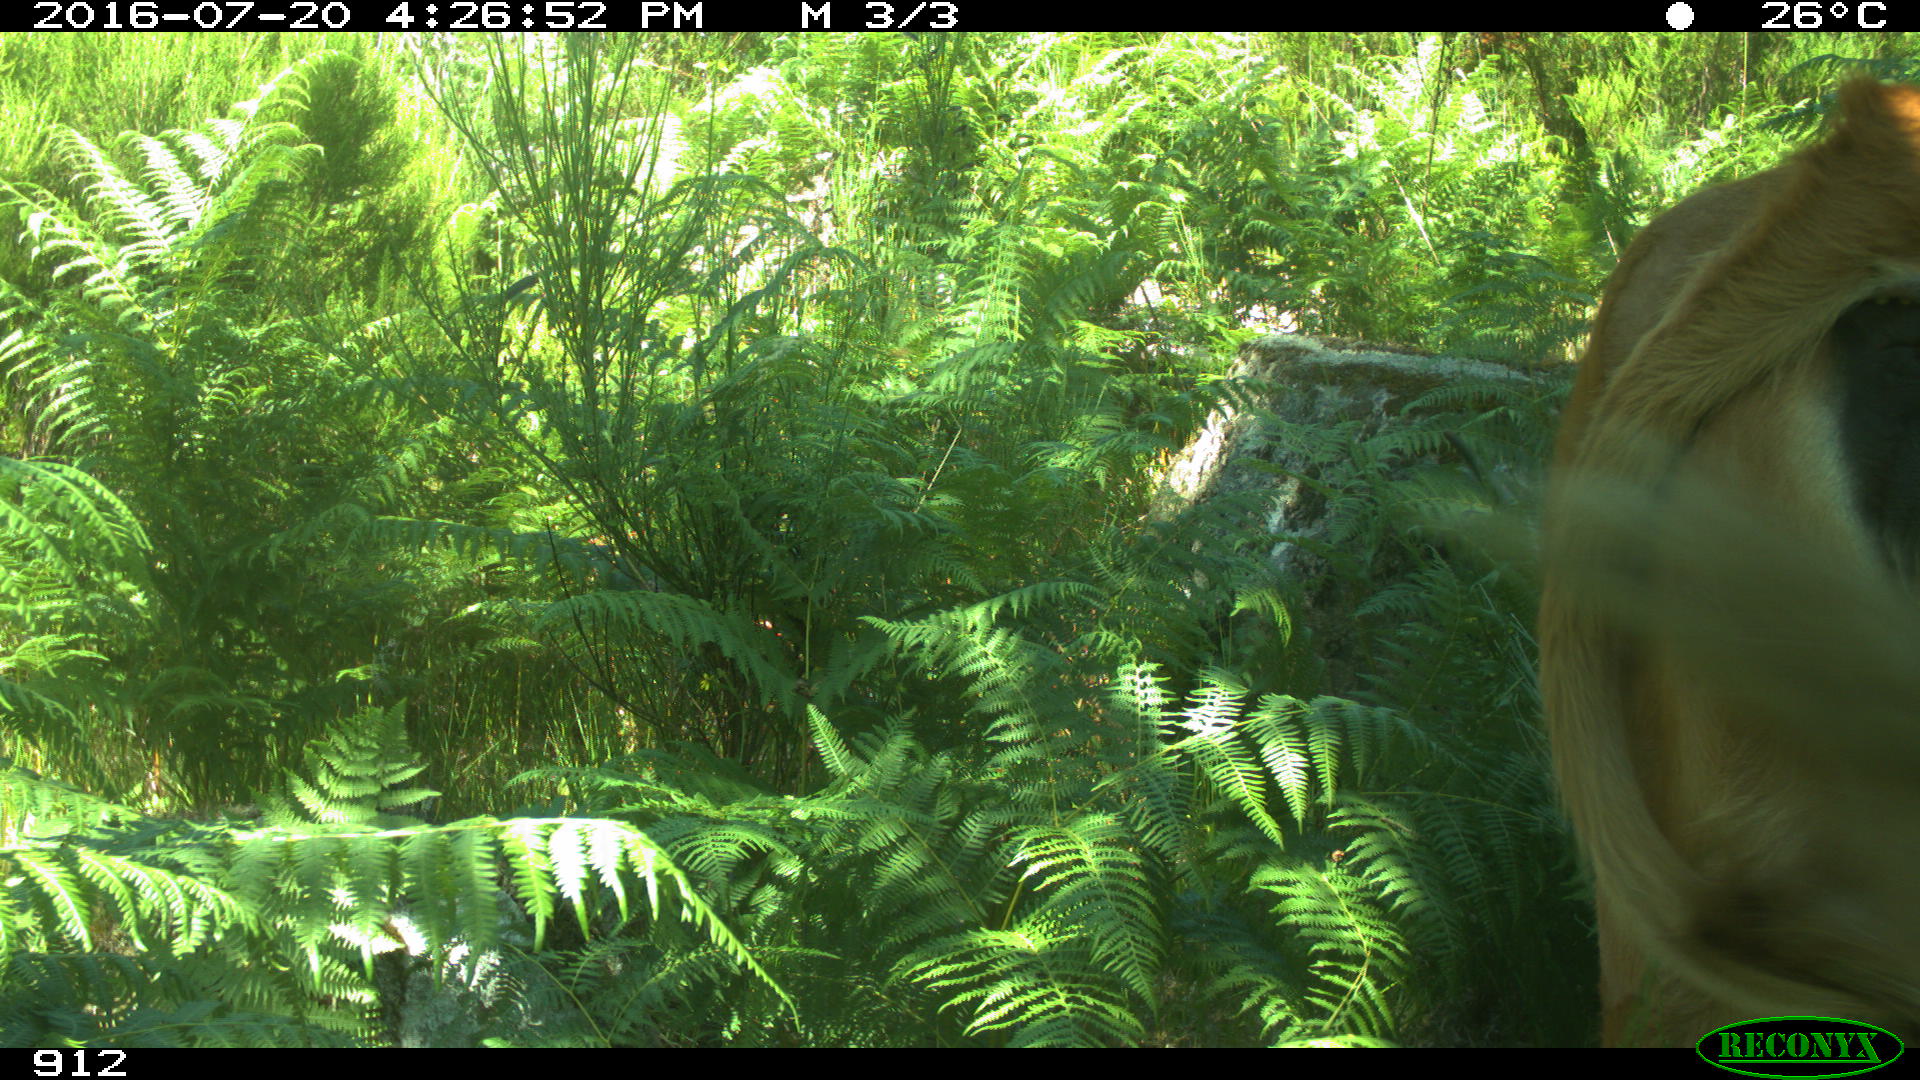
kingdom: Animalia
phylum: Chordata
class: Mammalia
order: Artiodactyla
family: Bovidae
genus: Bos
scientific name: Bos taurus
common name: Domesticated cattle
